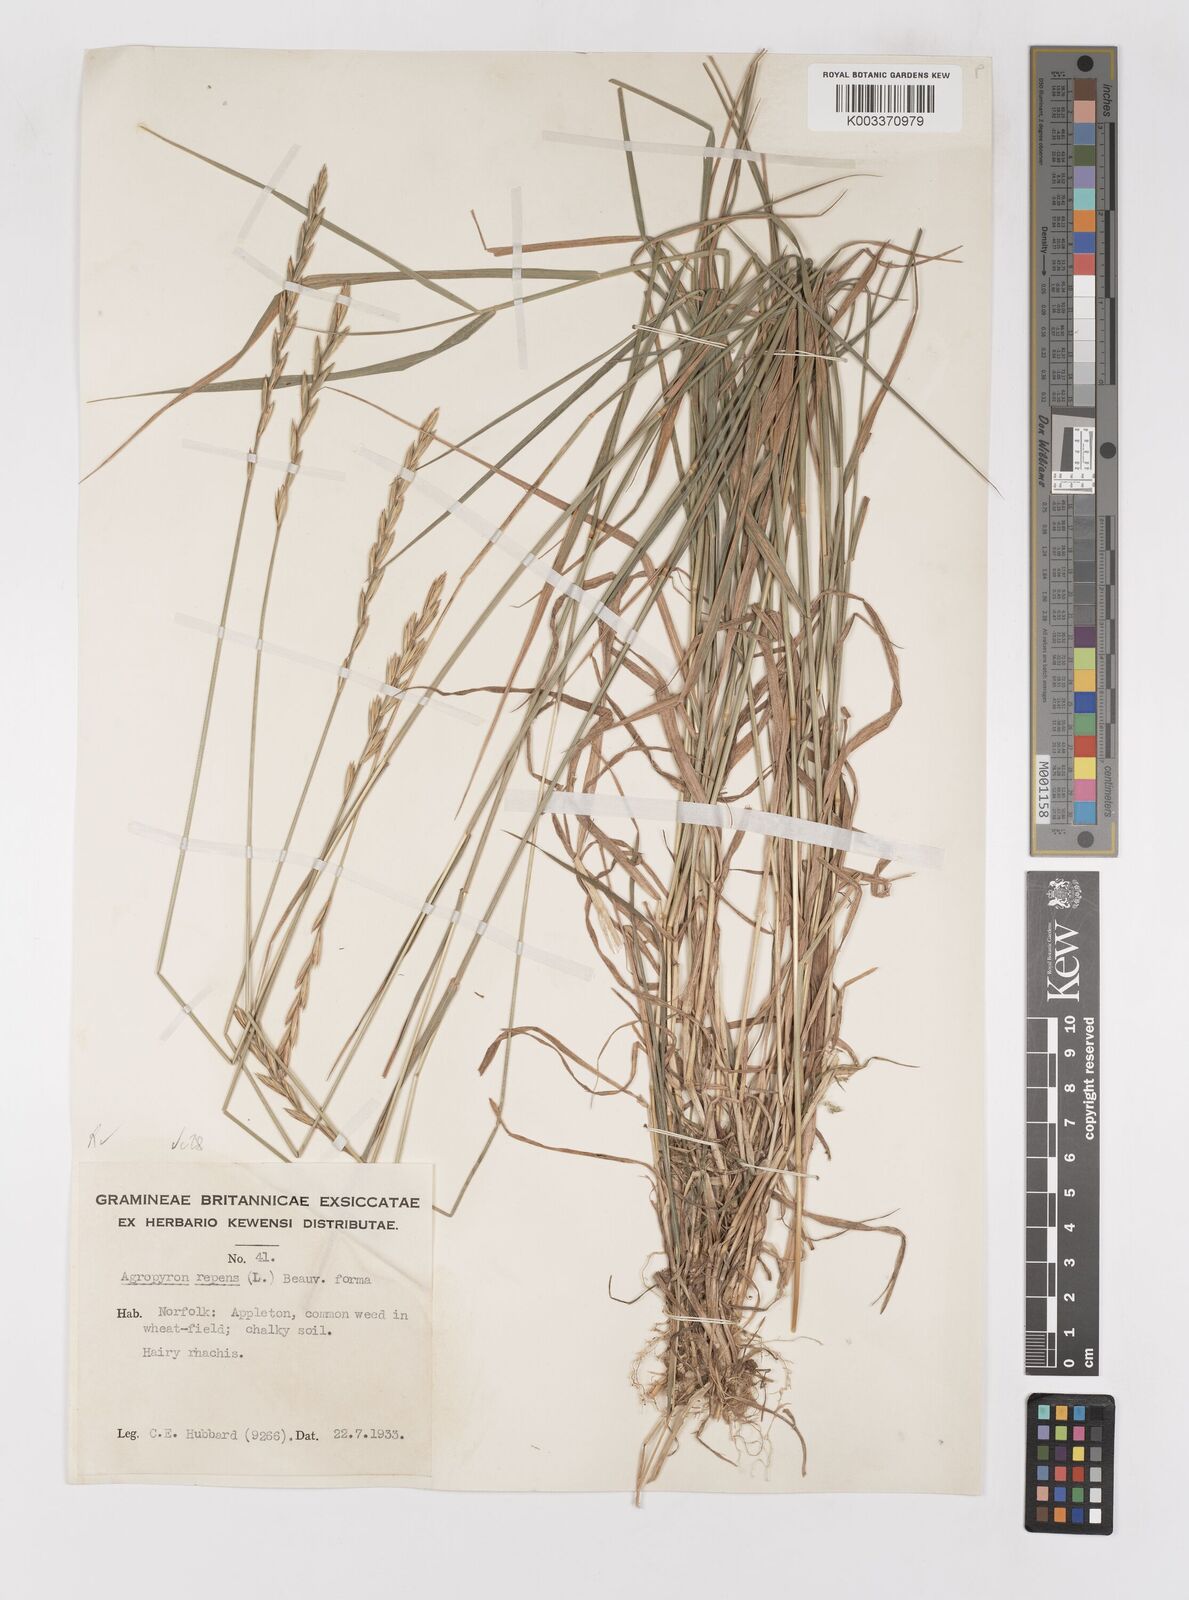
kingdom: Plantae
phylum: Tracheophyta
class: Liliopsida
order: Poales
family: Poaceae
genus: Elymus
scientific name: Elymus repens
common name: Quackgrass
